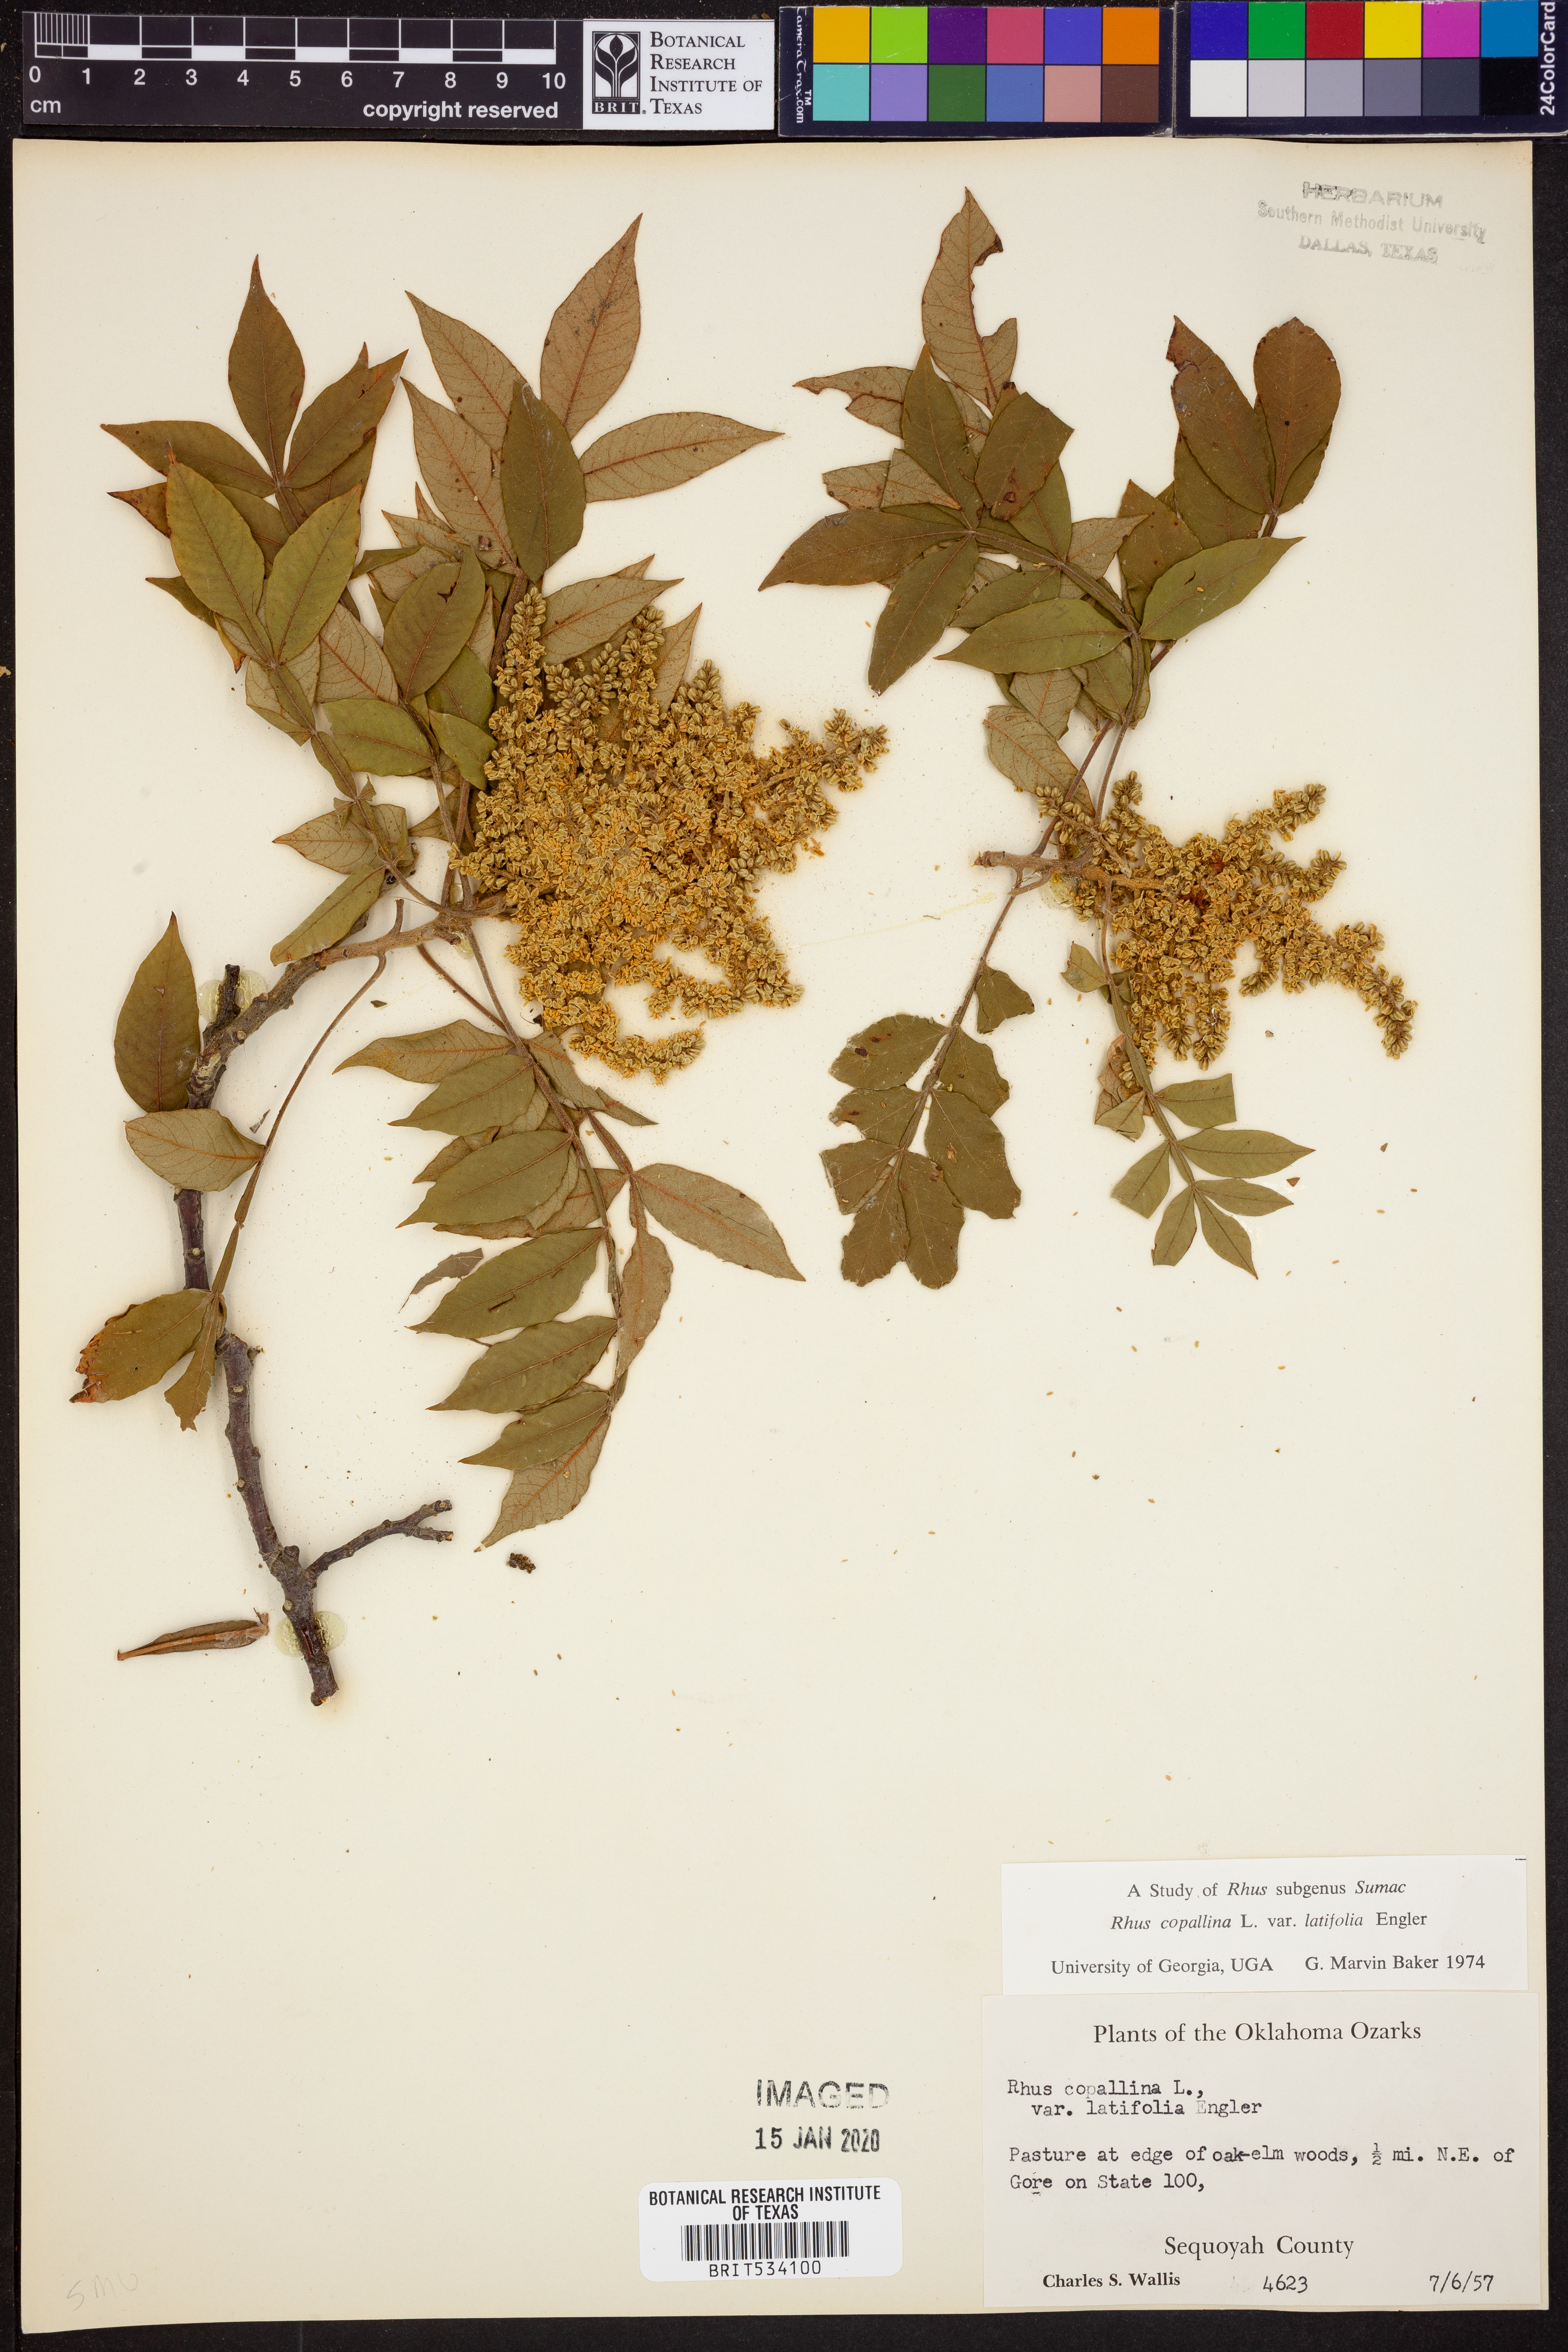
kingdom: Plantae
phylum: Tracheophyta
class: Magnoliopsida
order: Sapindales
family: Anacardiaceae
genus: Rhus
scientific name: Rhus copallina
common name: Shining sumac
